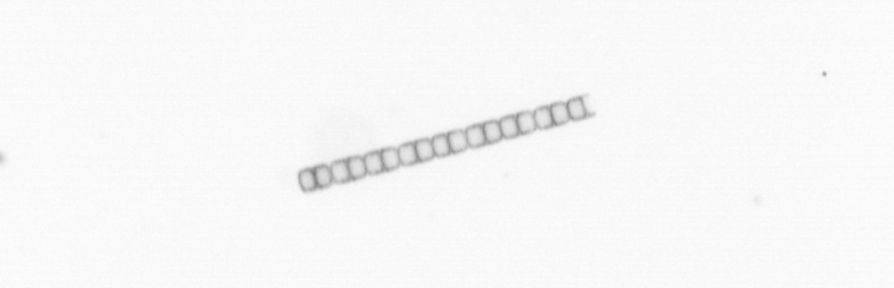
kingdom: Chromista
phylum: Ochrophyta
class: Bacillariophyceae
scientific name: Bacillariophyceae
